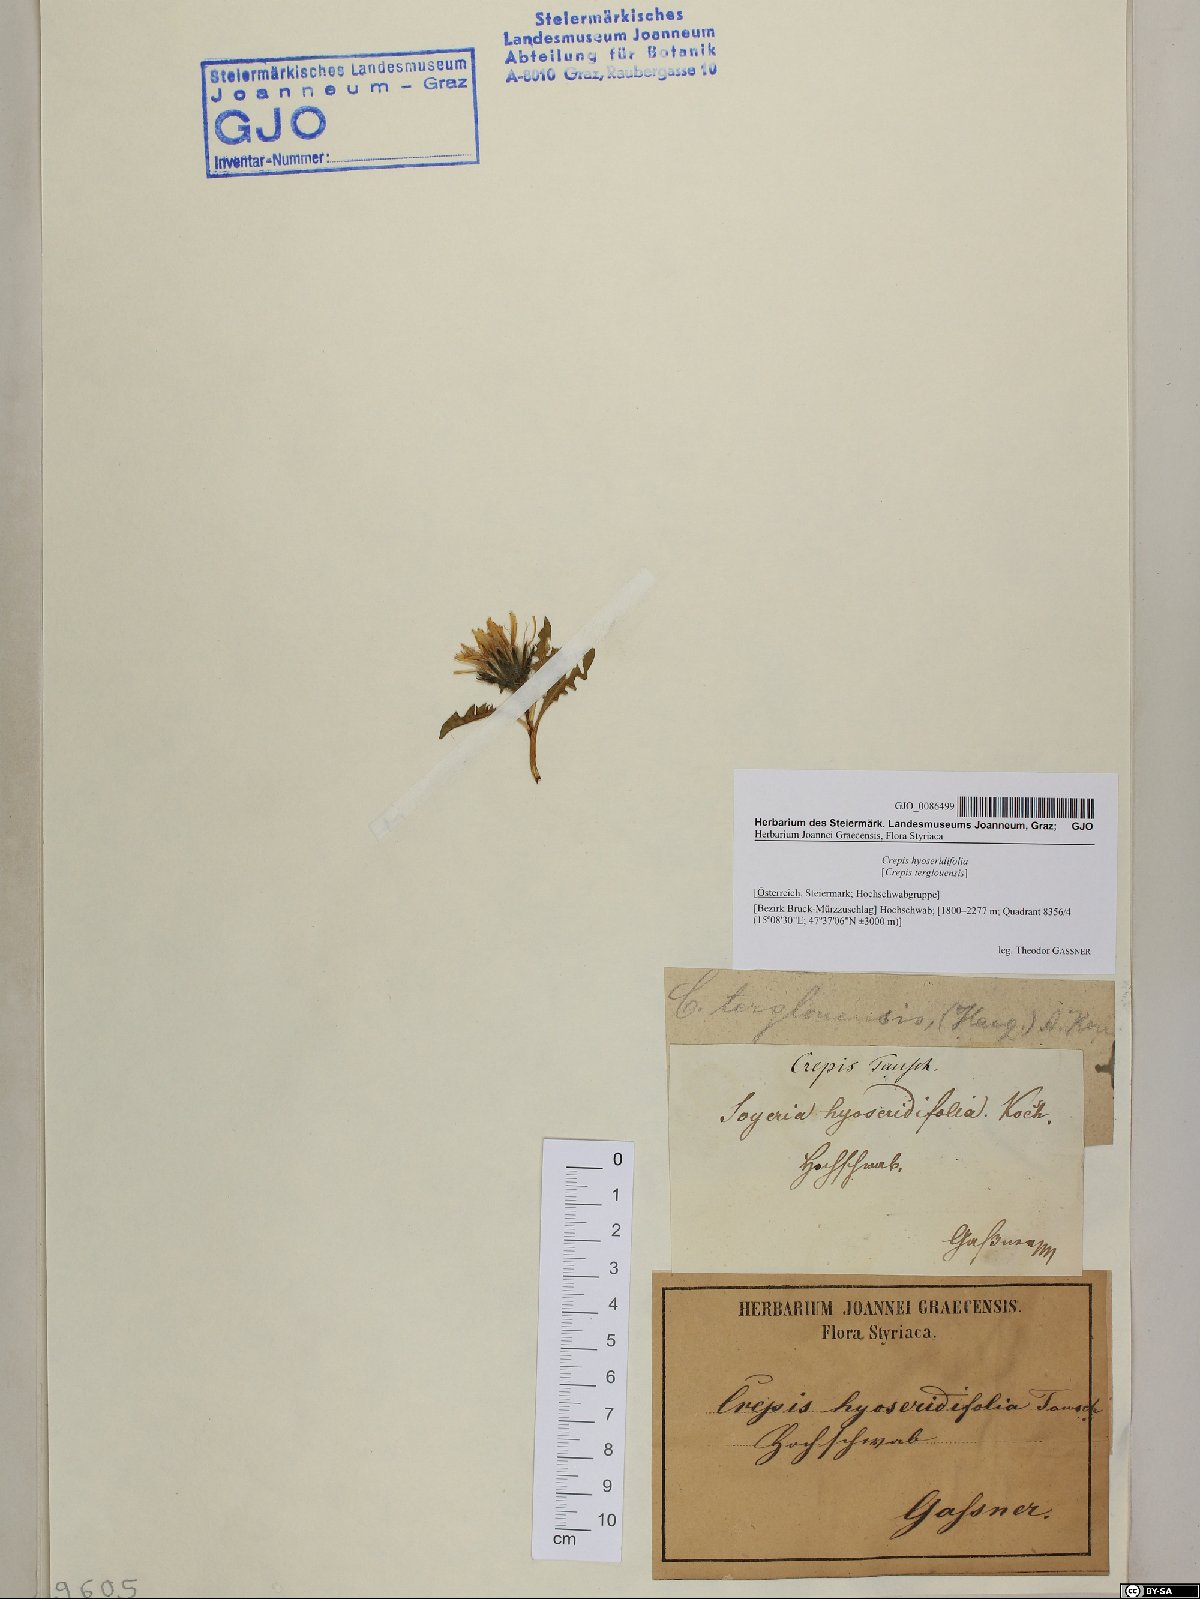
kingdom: Plantae
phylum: Tracheophyta
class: Magnoliopsida
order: Asterales
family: Asteraceae
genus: Crepis
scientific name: Crepis terglouensis
